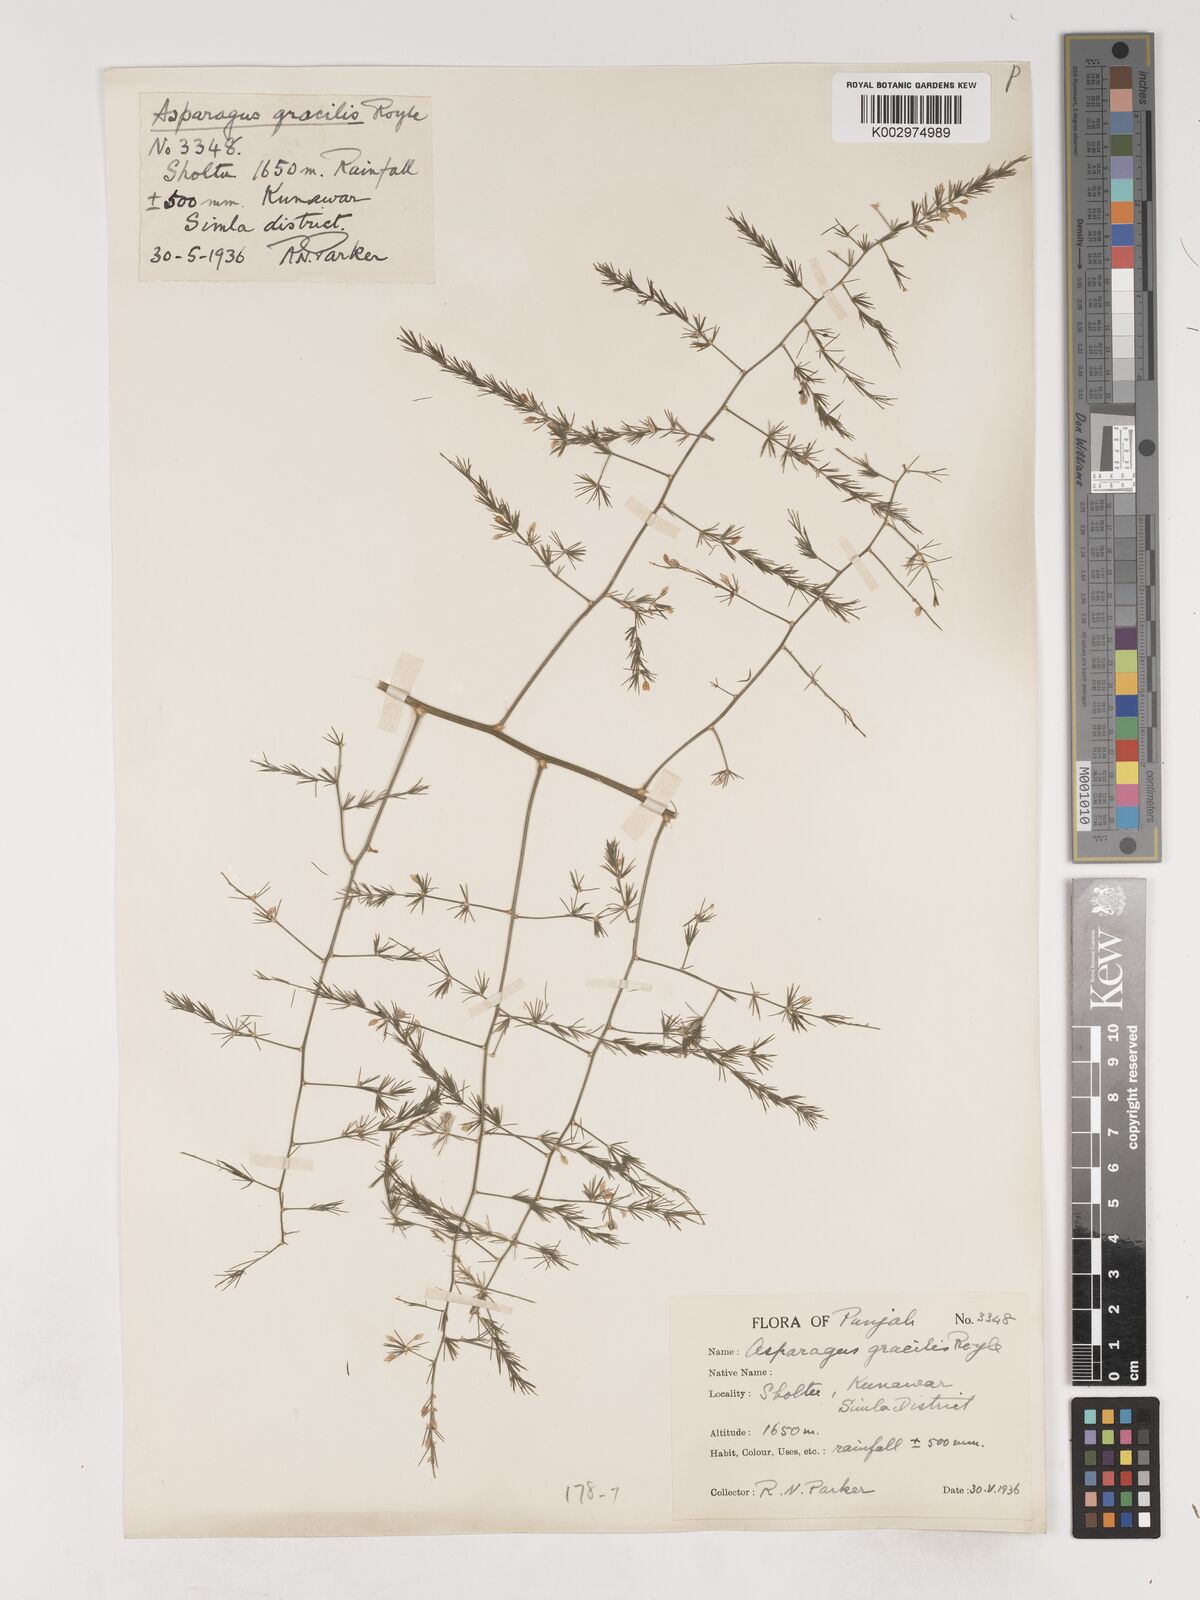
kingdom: Plantae
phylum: Tracheophyta
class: Liliopsida
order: Asparagales
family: Asparagaceae
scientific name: Asparagaceae
